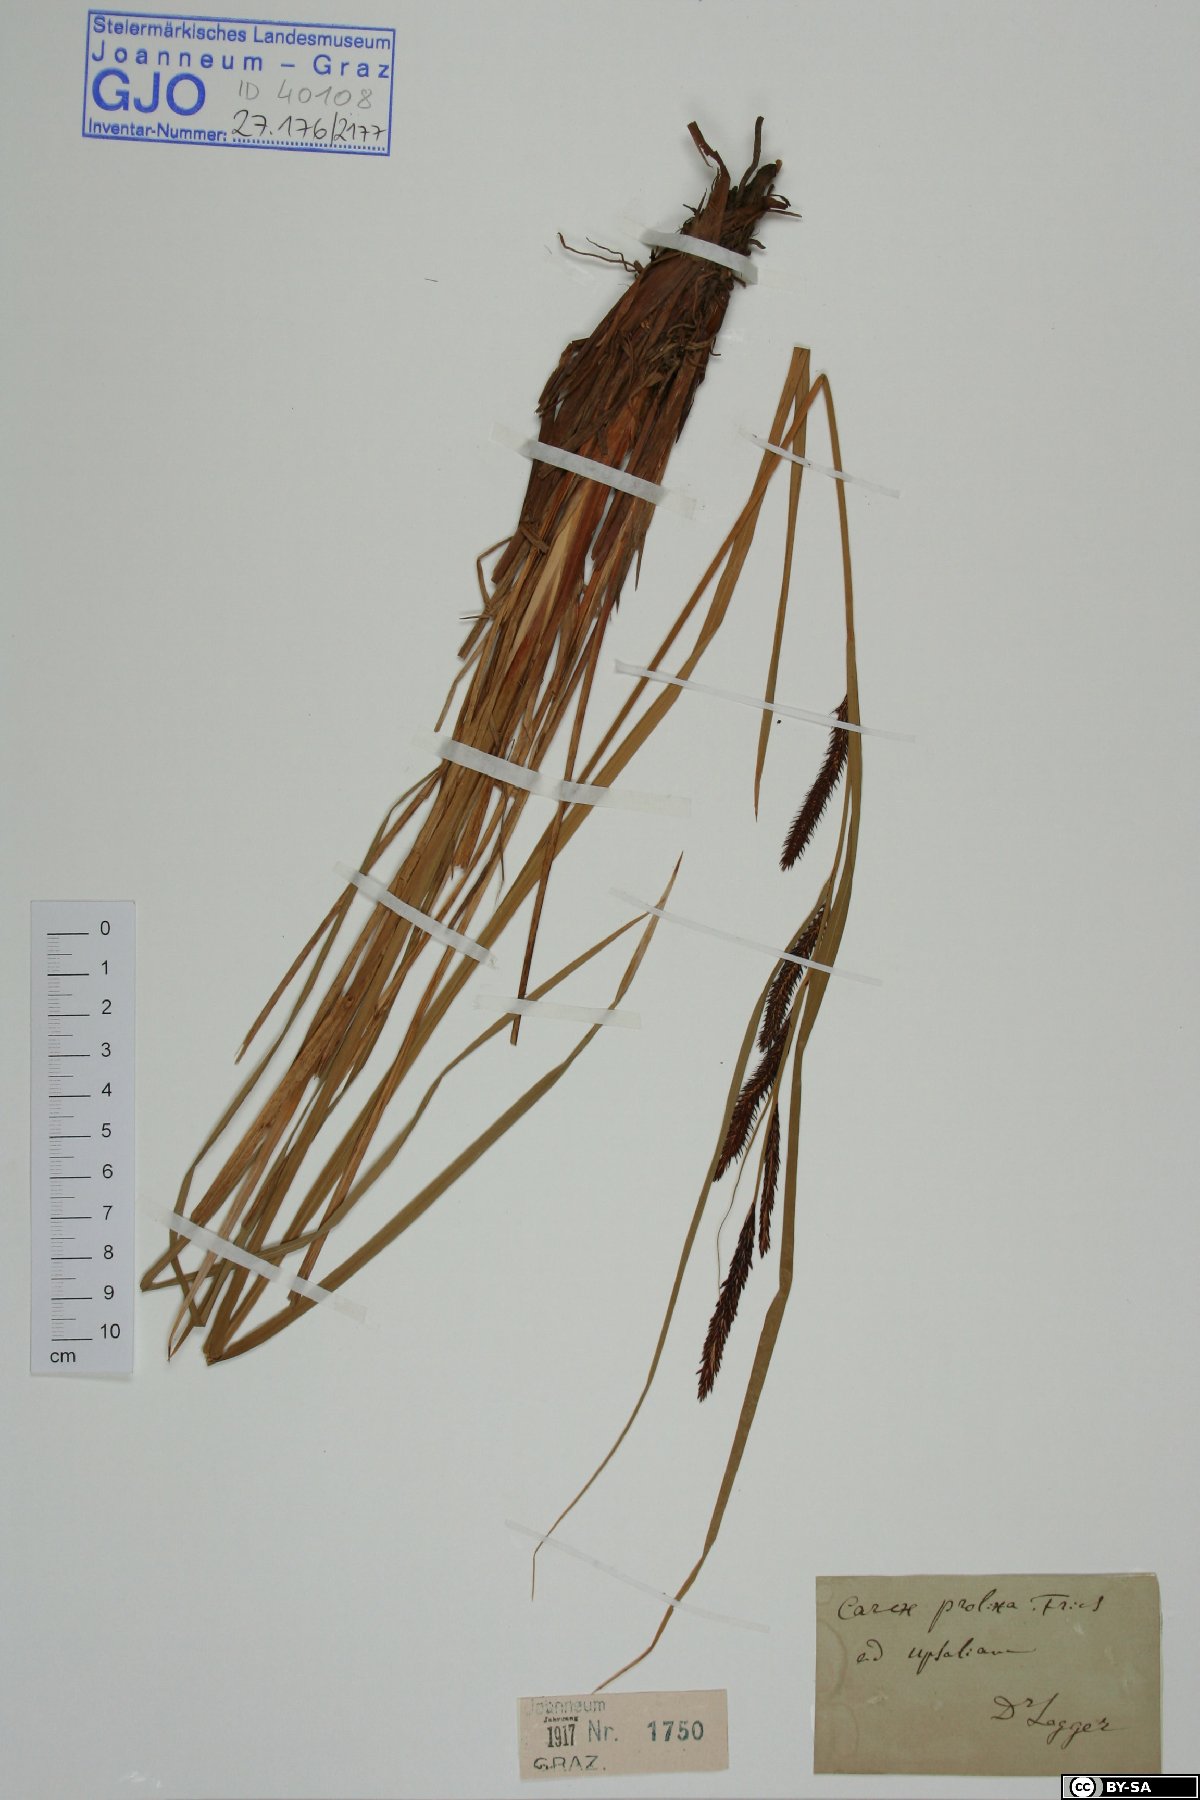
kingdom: Plantae
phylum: Tracheophyta
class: Liliopsida
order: Poales
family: Cyperaceae
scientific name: Cyperaceae
